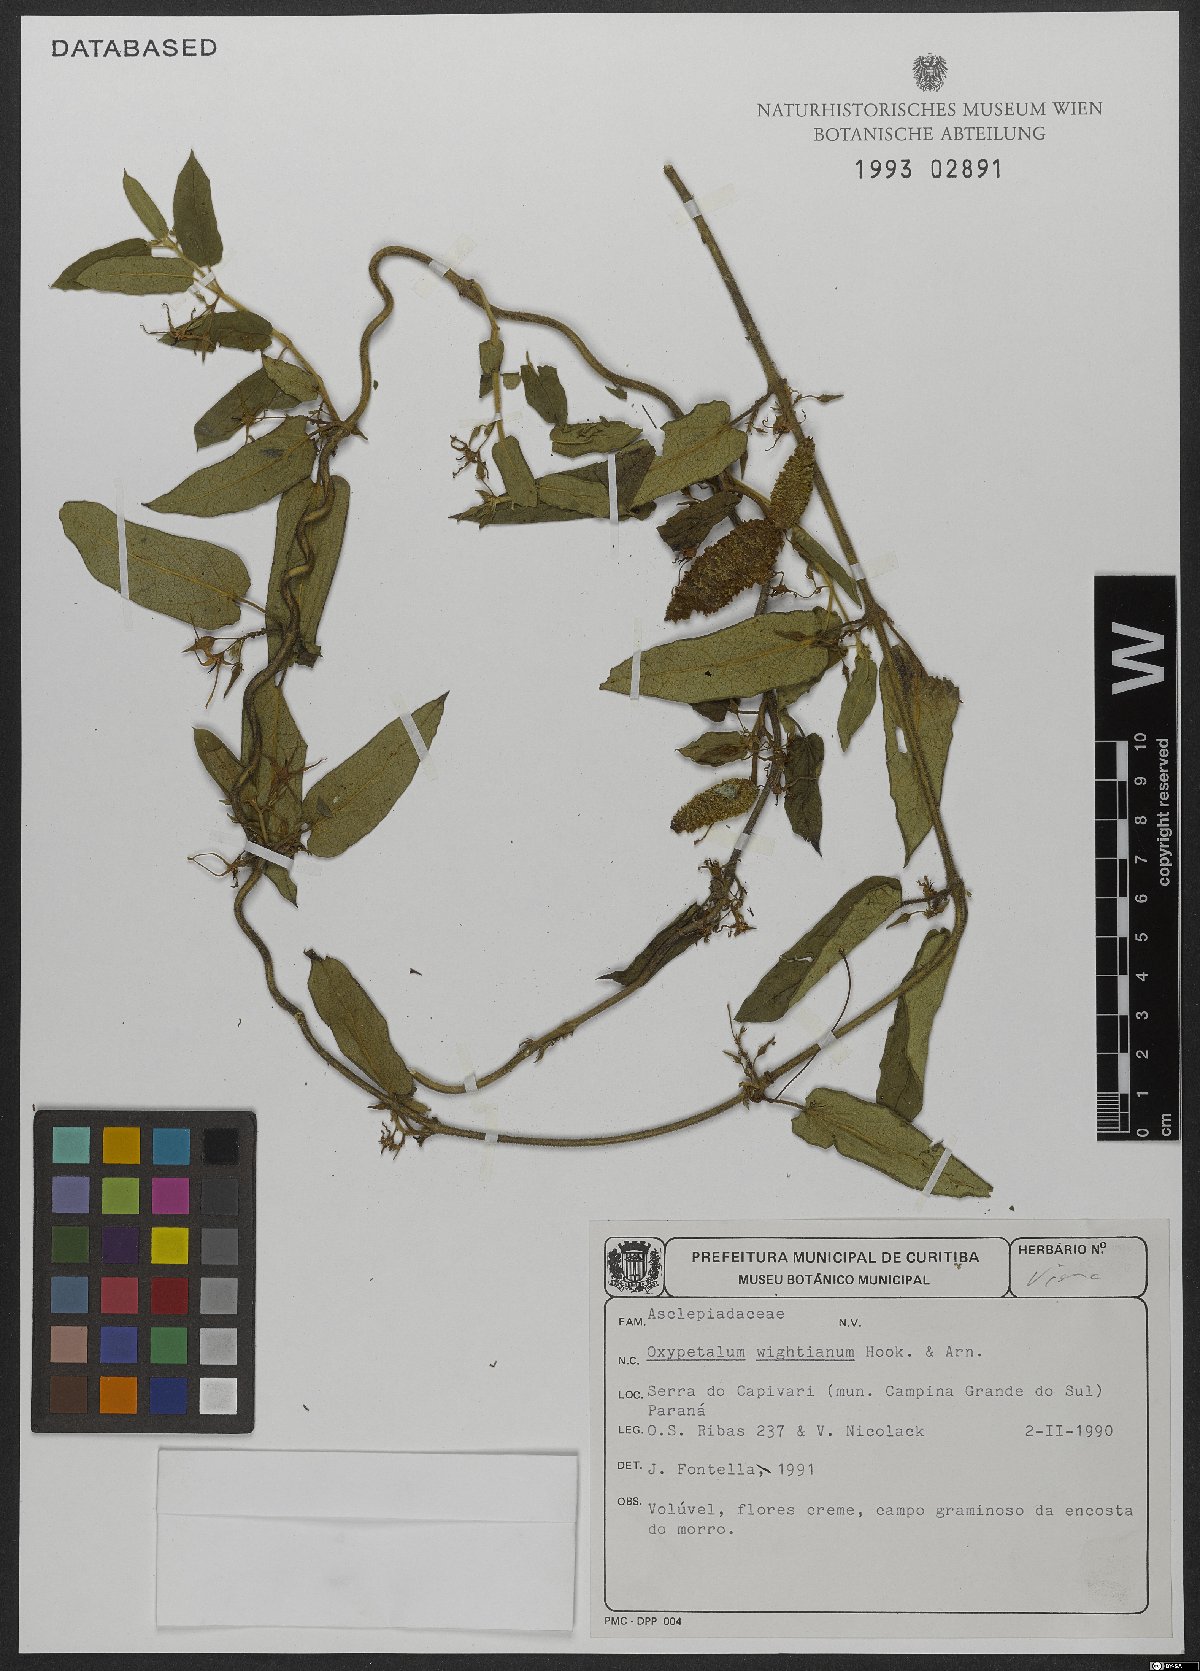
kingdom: Plantae
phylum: Tracheophyta
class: Magnoliopsida
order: Gentianales
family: Apocynaceae
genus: Oxypetalum
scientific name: Oxypetalum wightianum
